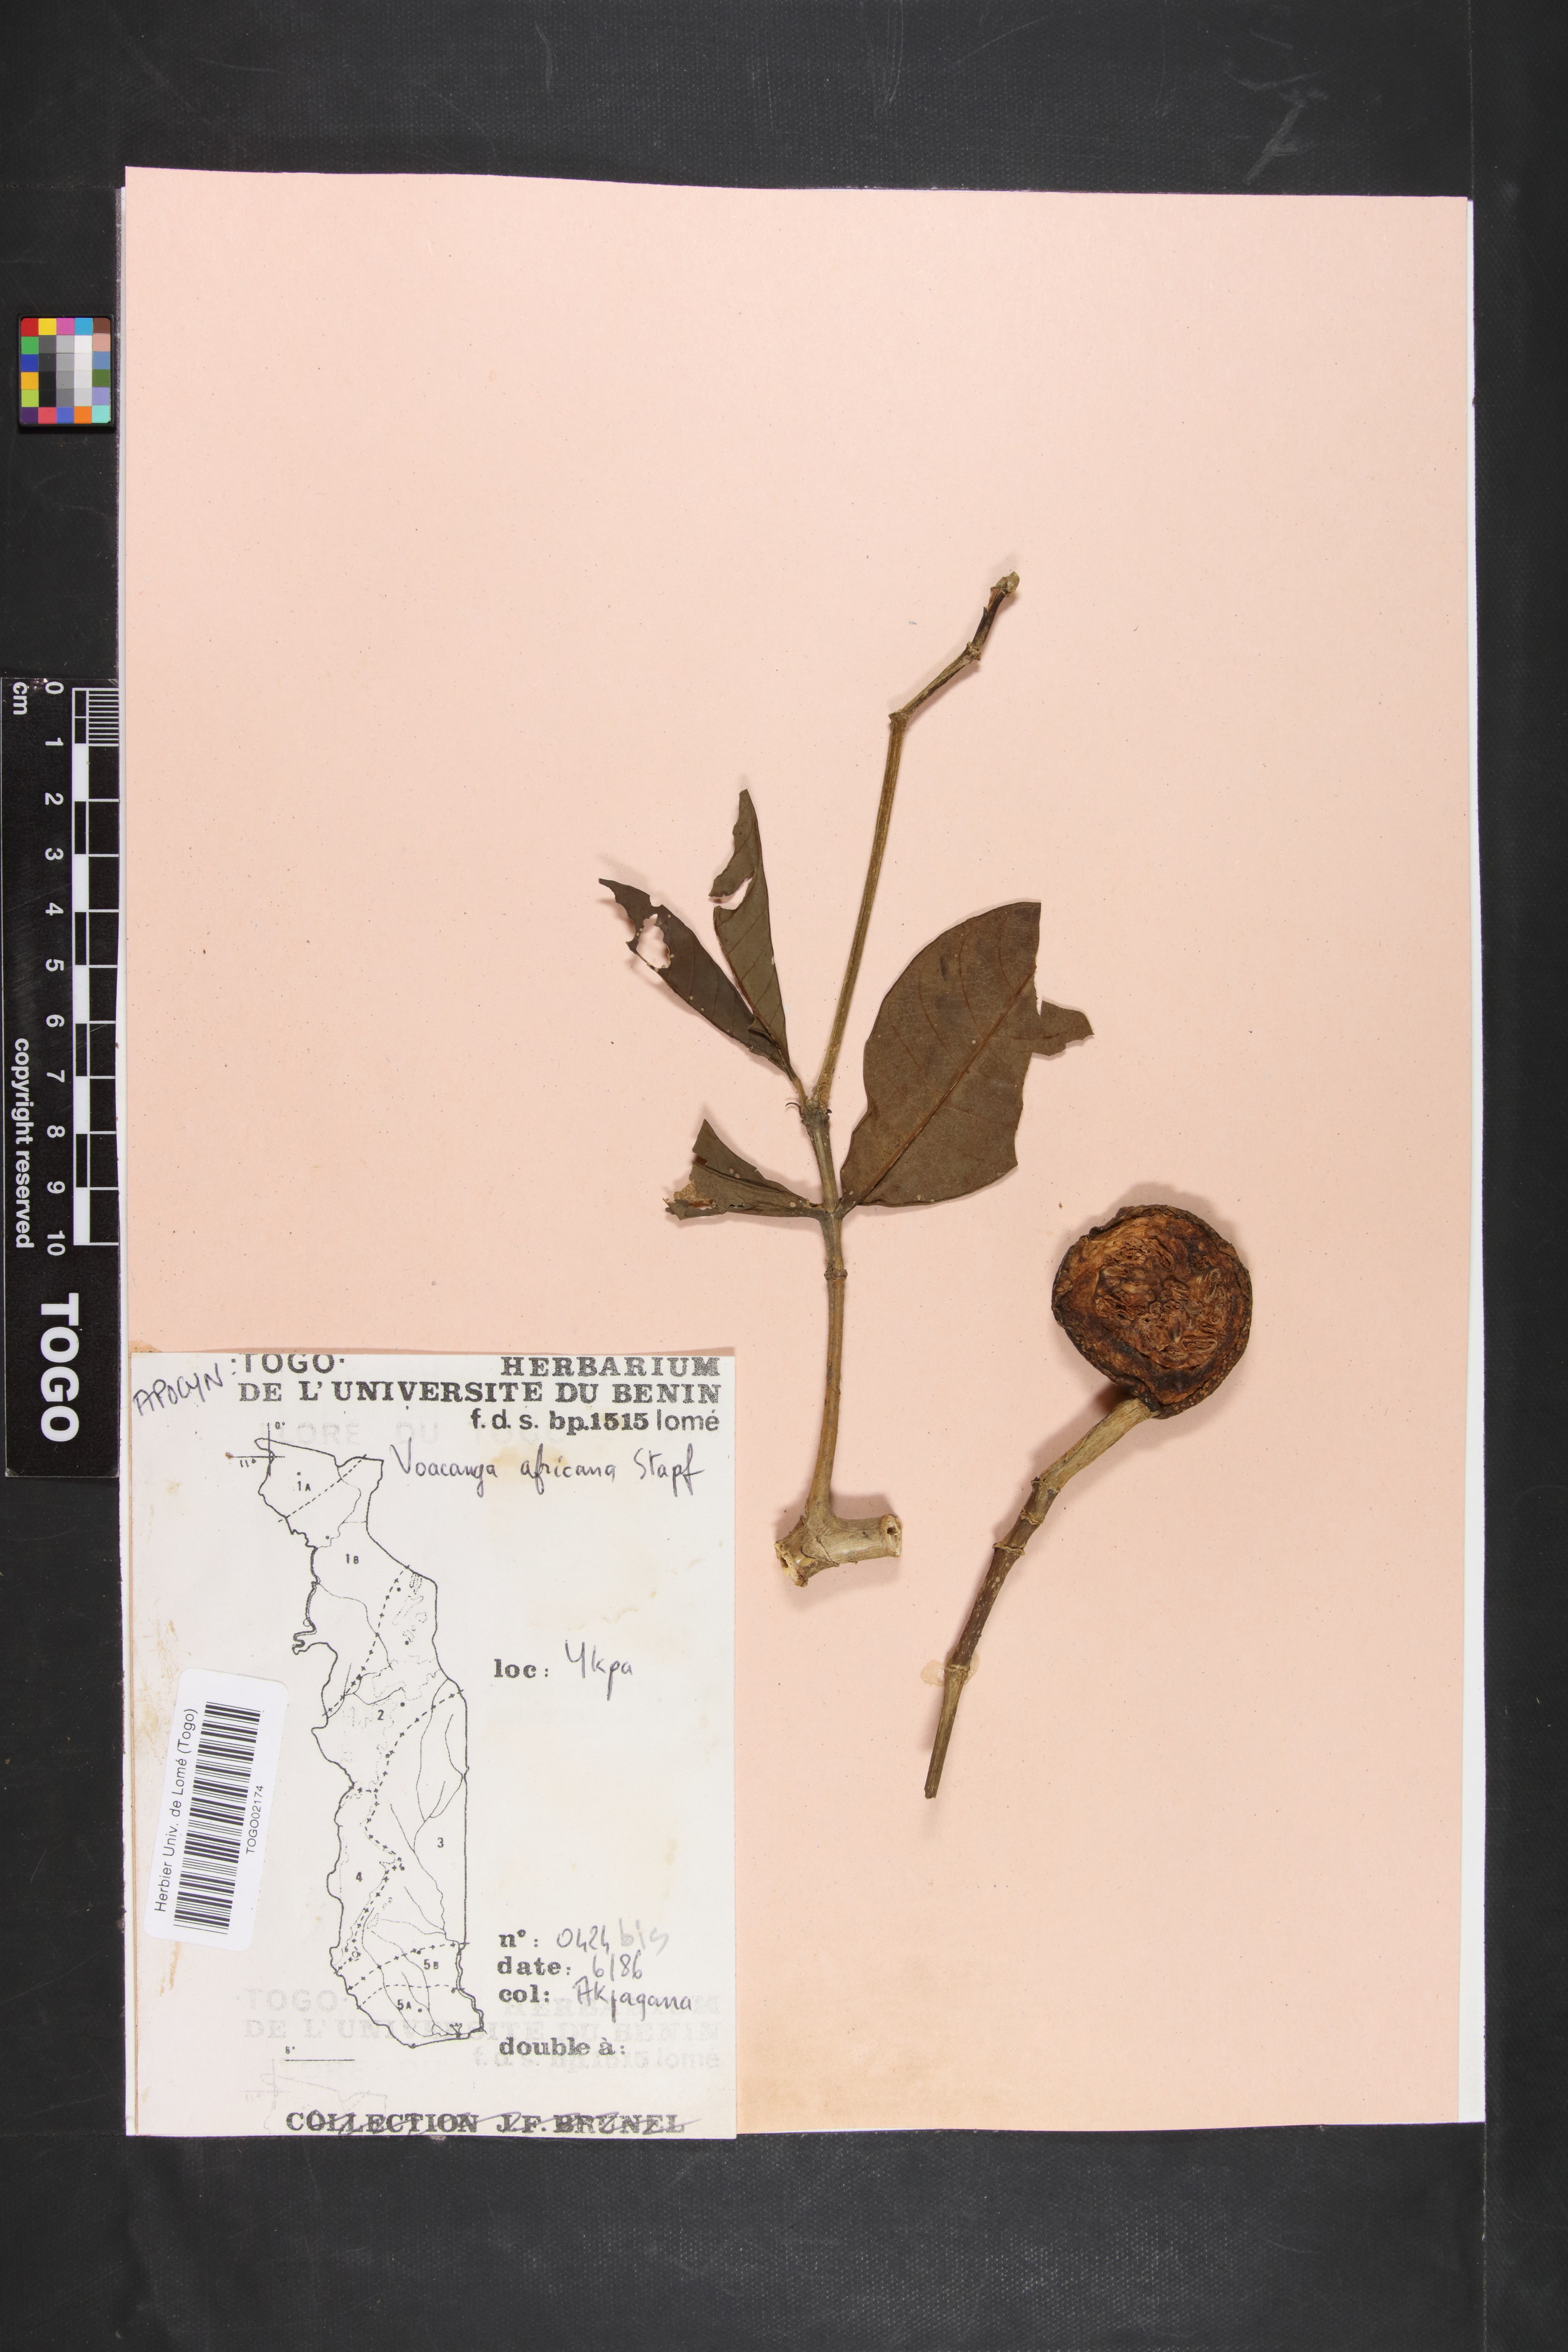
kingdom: Plantae
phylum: Tracheophyta
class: Magnoliopsida
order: Gentianales
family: Apocynaceae
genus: Voacanga
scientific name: Voacanga africana
